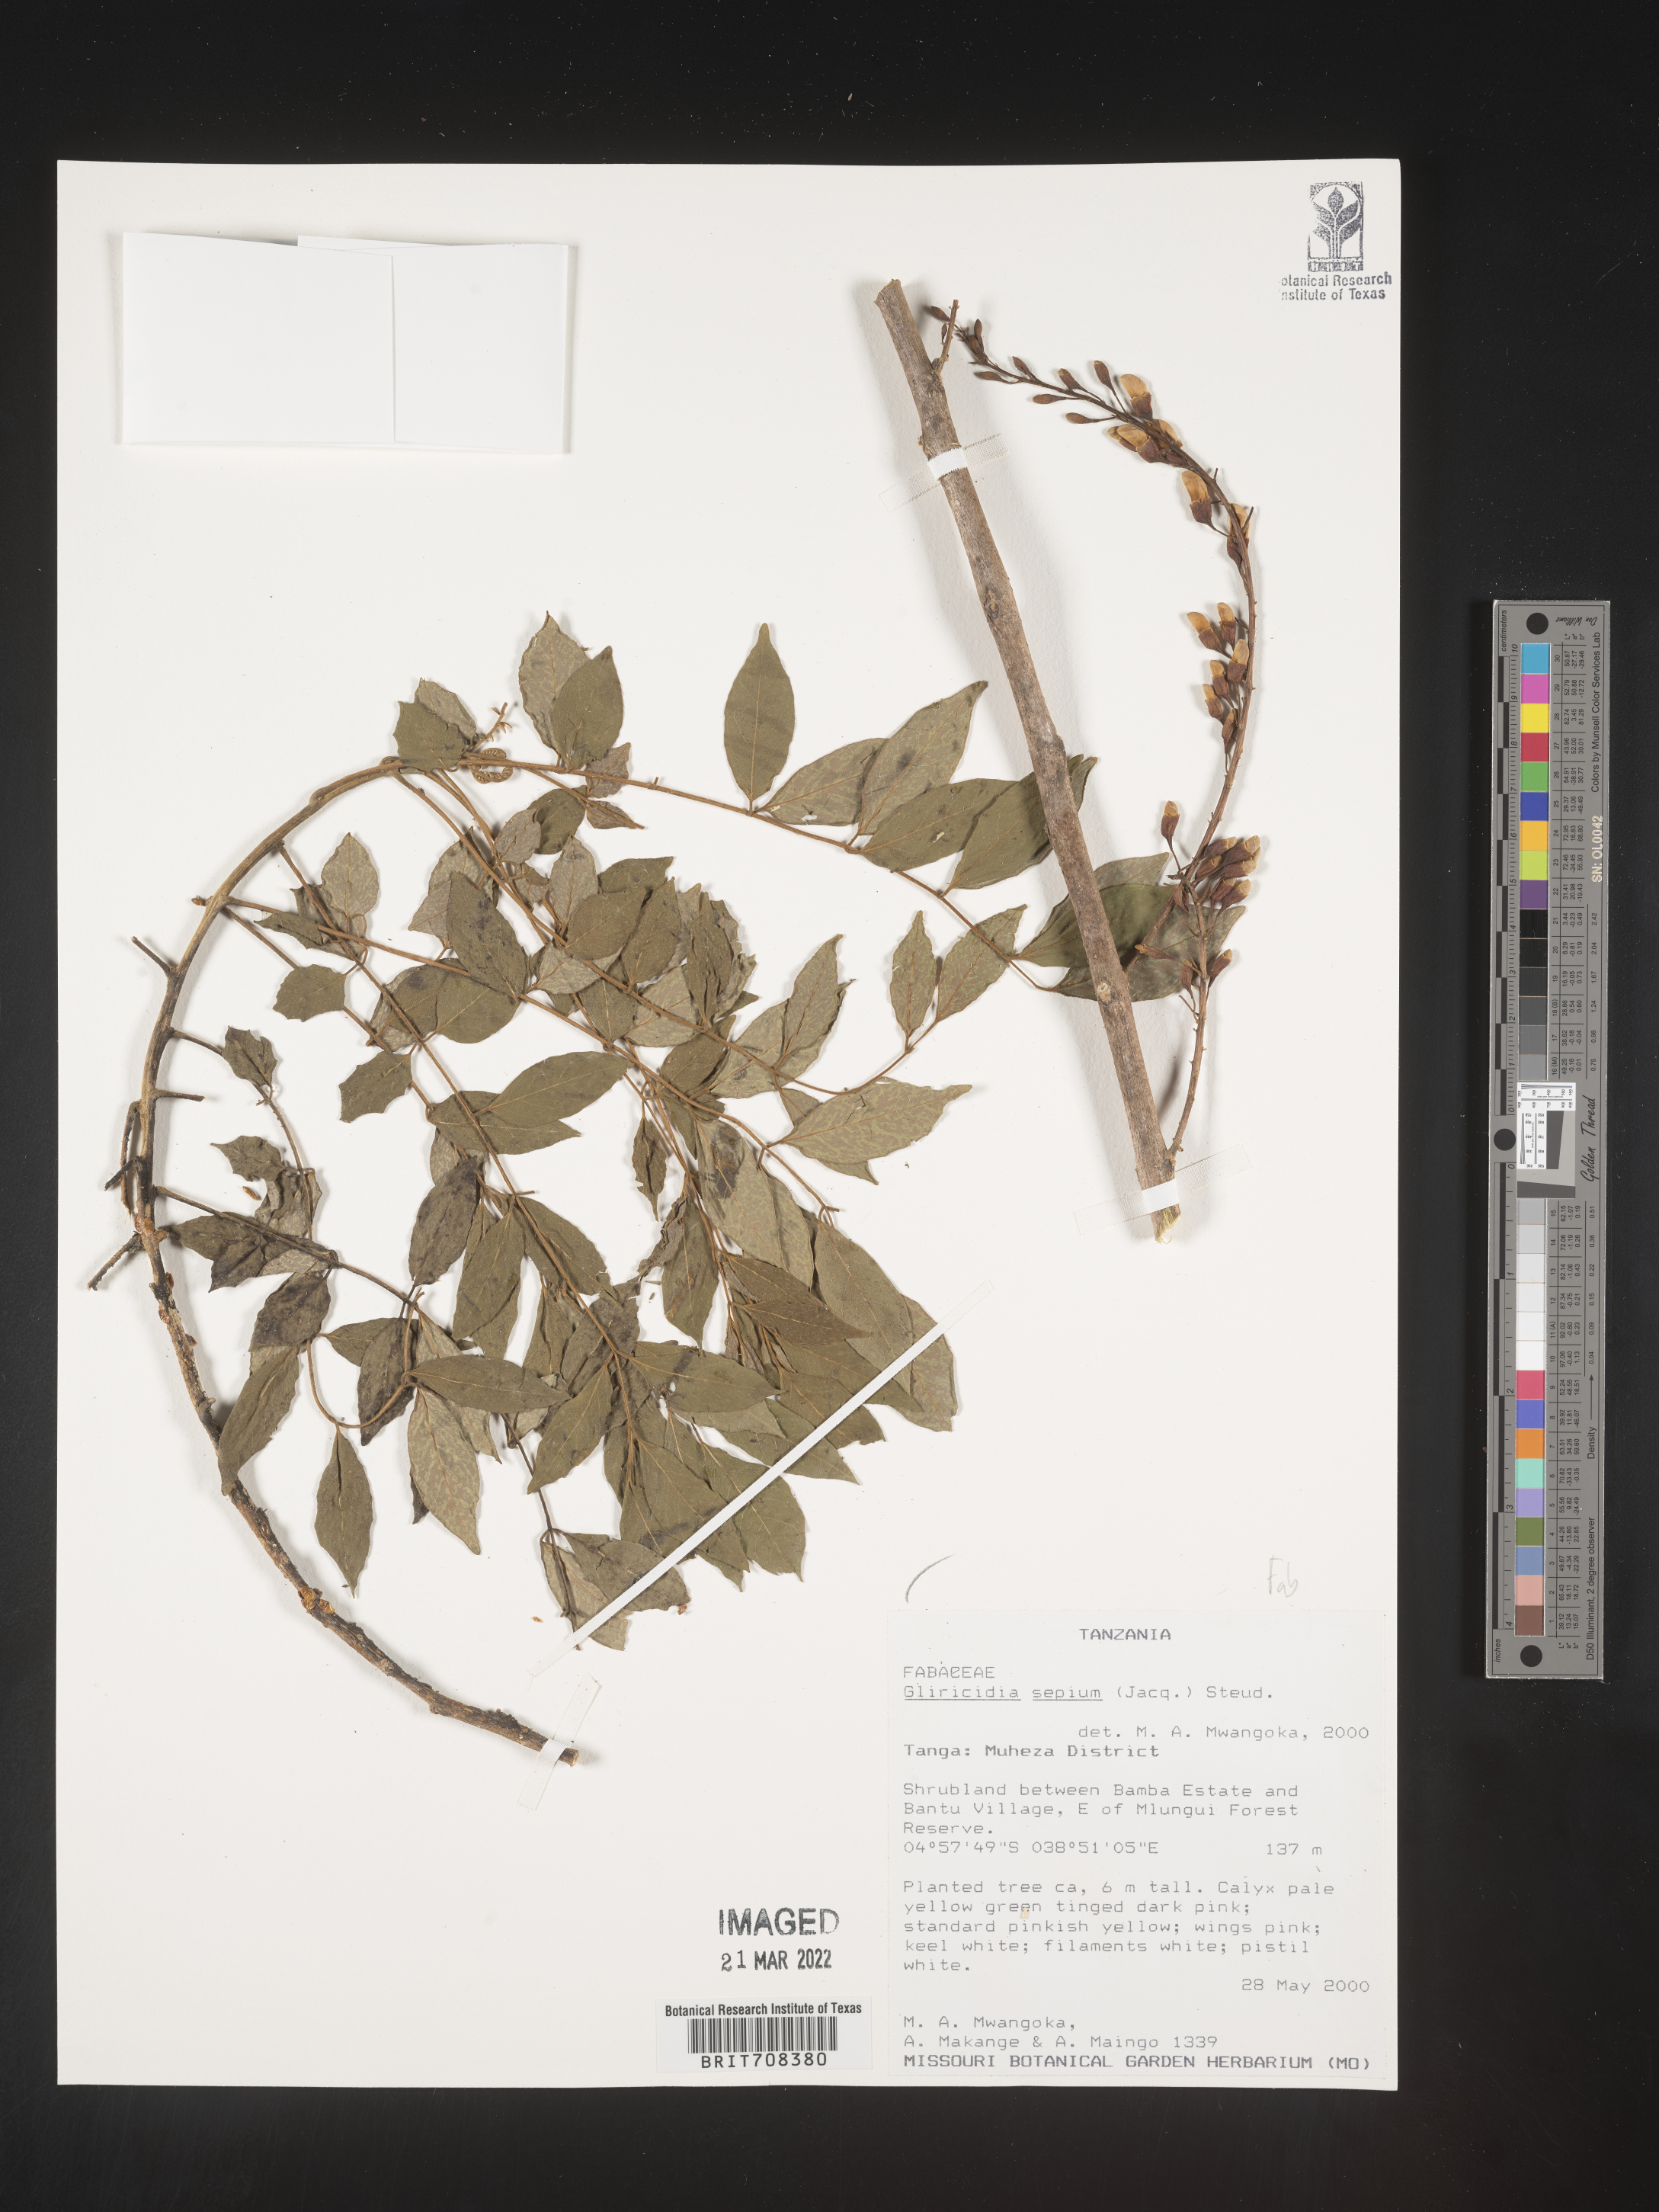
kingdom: Plantae
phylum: Tracheophyta
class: Magnoliopsida
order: Fabales
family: Fabaceae
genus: Gliricidia
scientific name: Gliricidia
